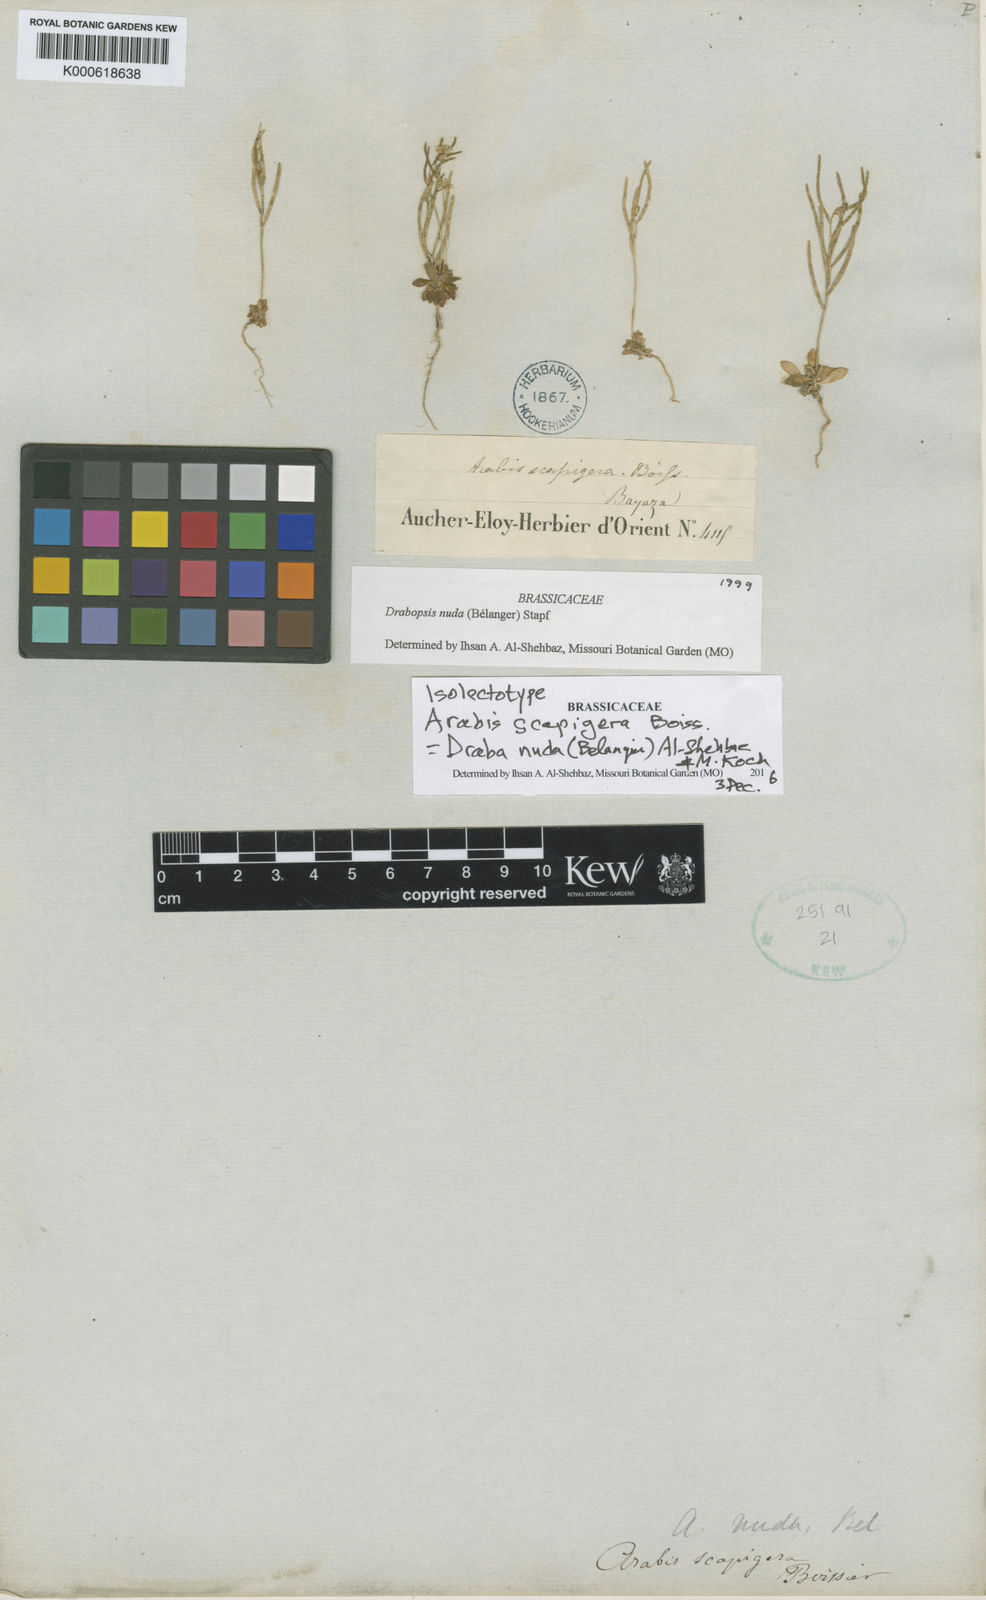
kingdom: Plantae
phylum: Tracheophyta
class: Magnoliopsida
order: Brassicales
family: Brassicaceae
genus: Draba
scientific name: Draba nuda
